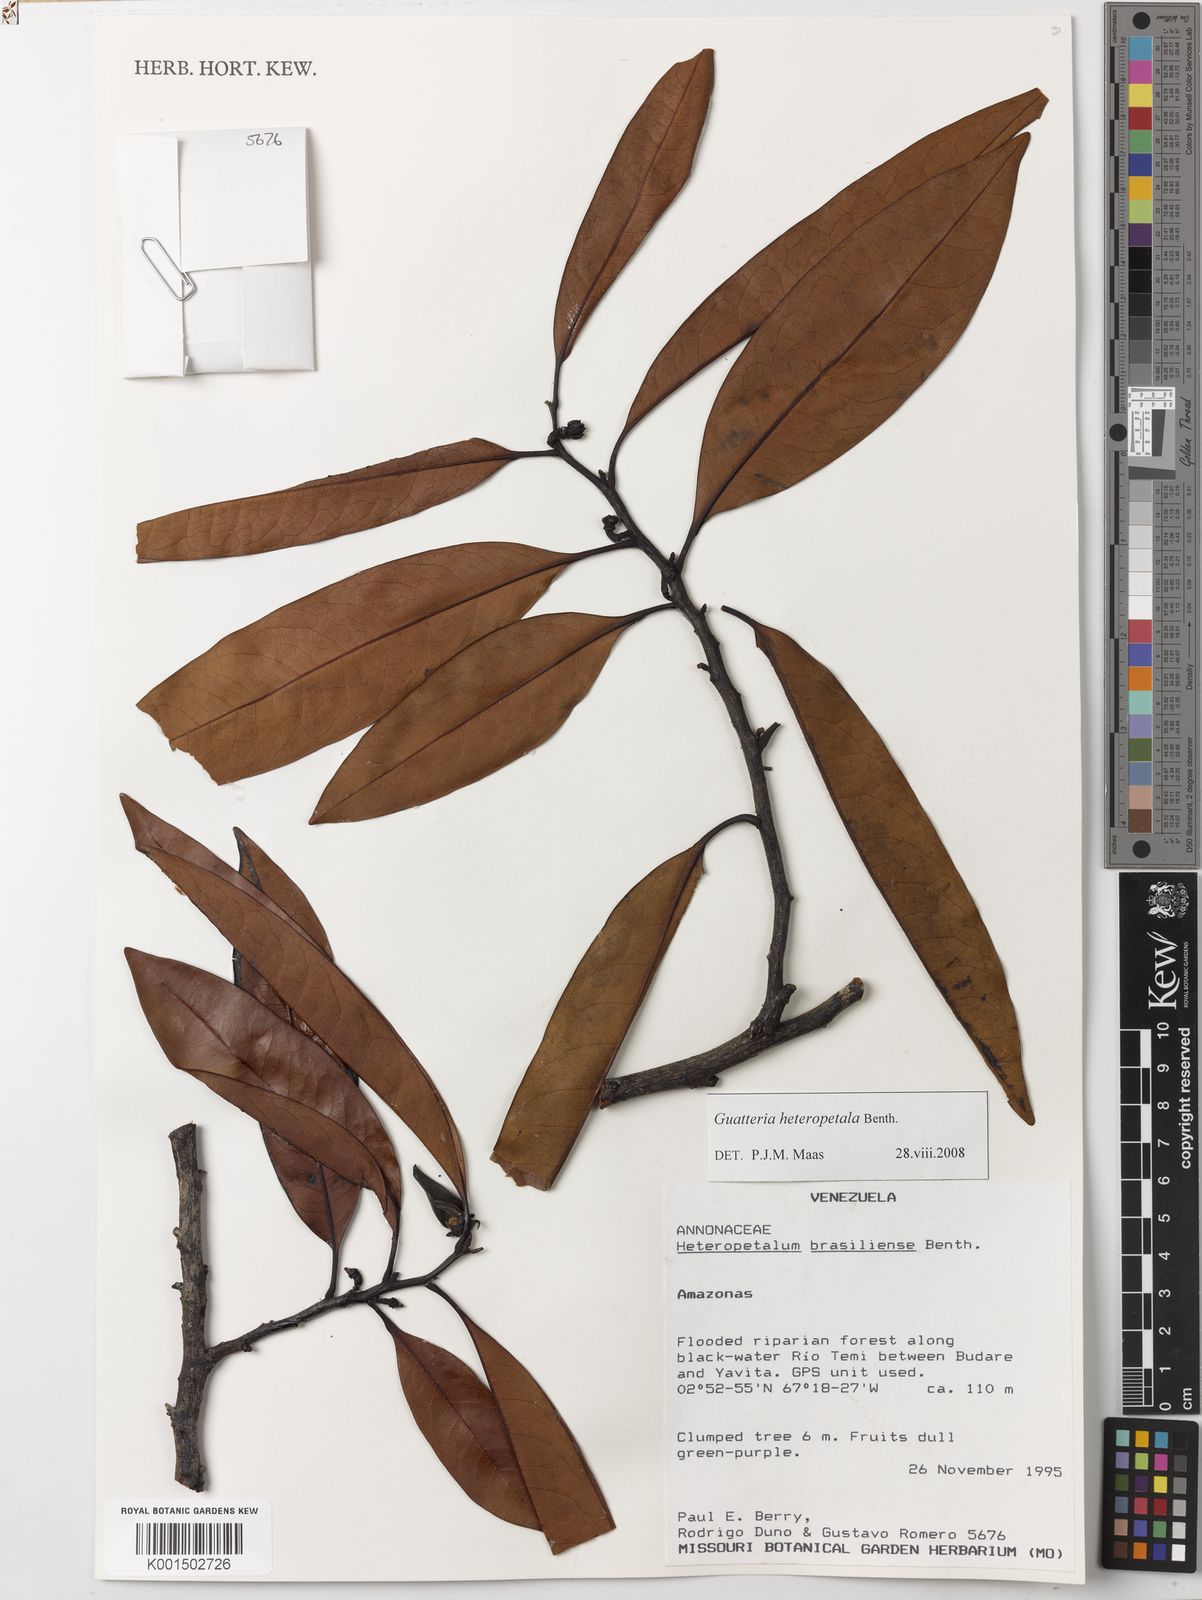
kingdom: Plantae
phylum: Tracheophyta
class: Magnoliopsida
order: Magnoliales
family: Annonaceae
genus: Guatteria
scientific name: Guatteria heteropetala
